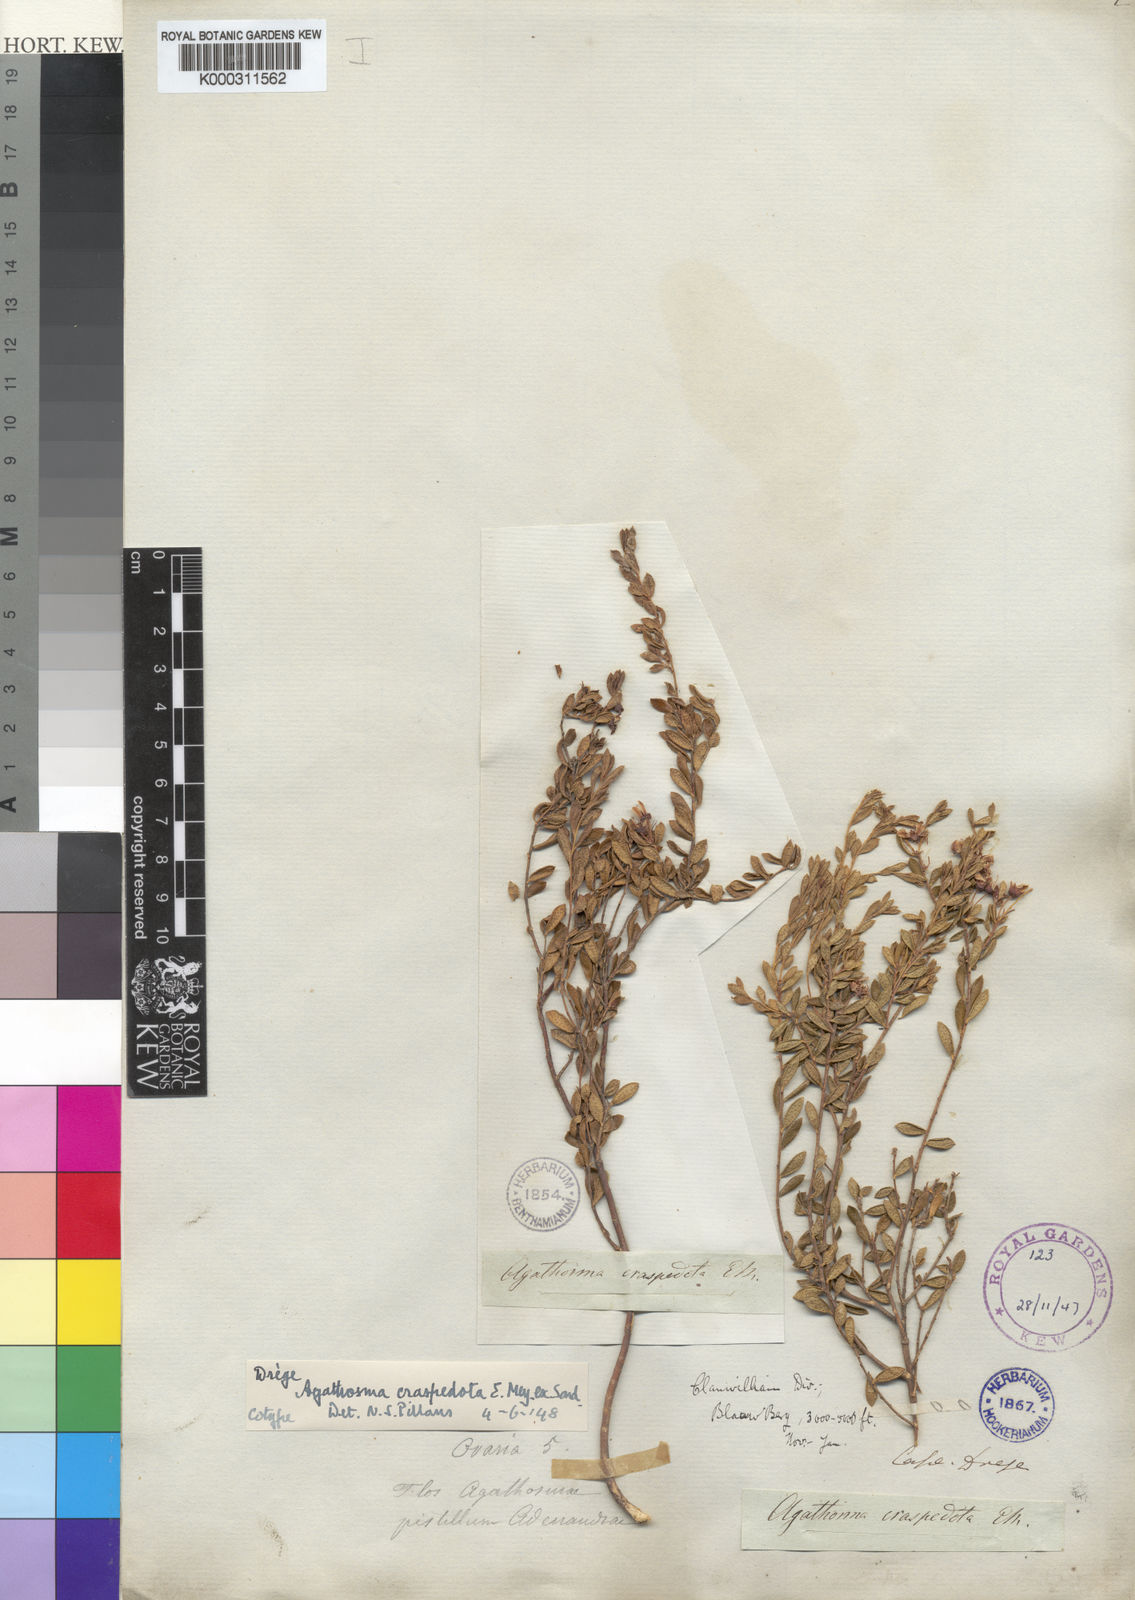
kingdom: Plantae
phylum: Tracheophyta
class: Magnoliopsida
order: Sapindales
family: Rutaceae
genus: Agathosma
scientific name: Agathosma craspedota
